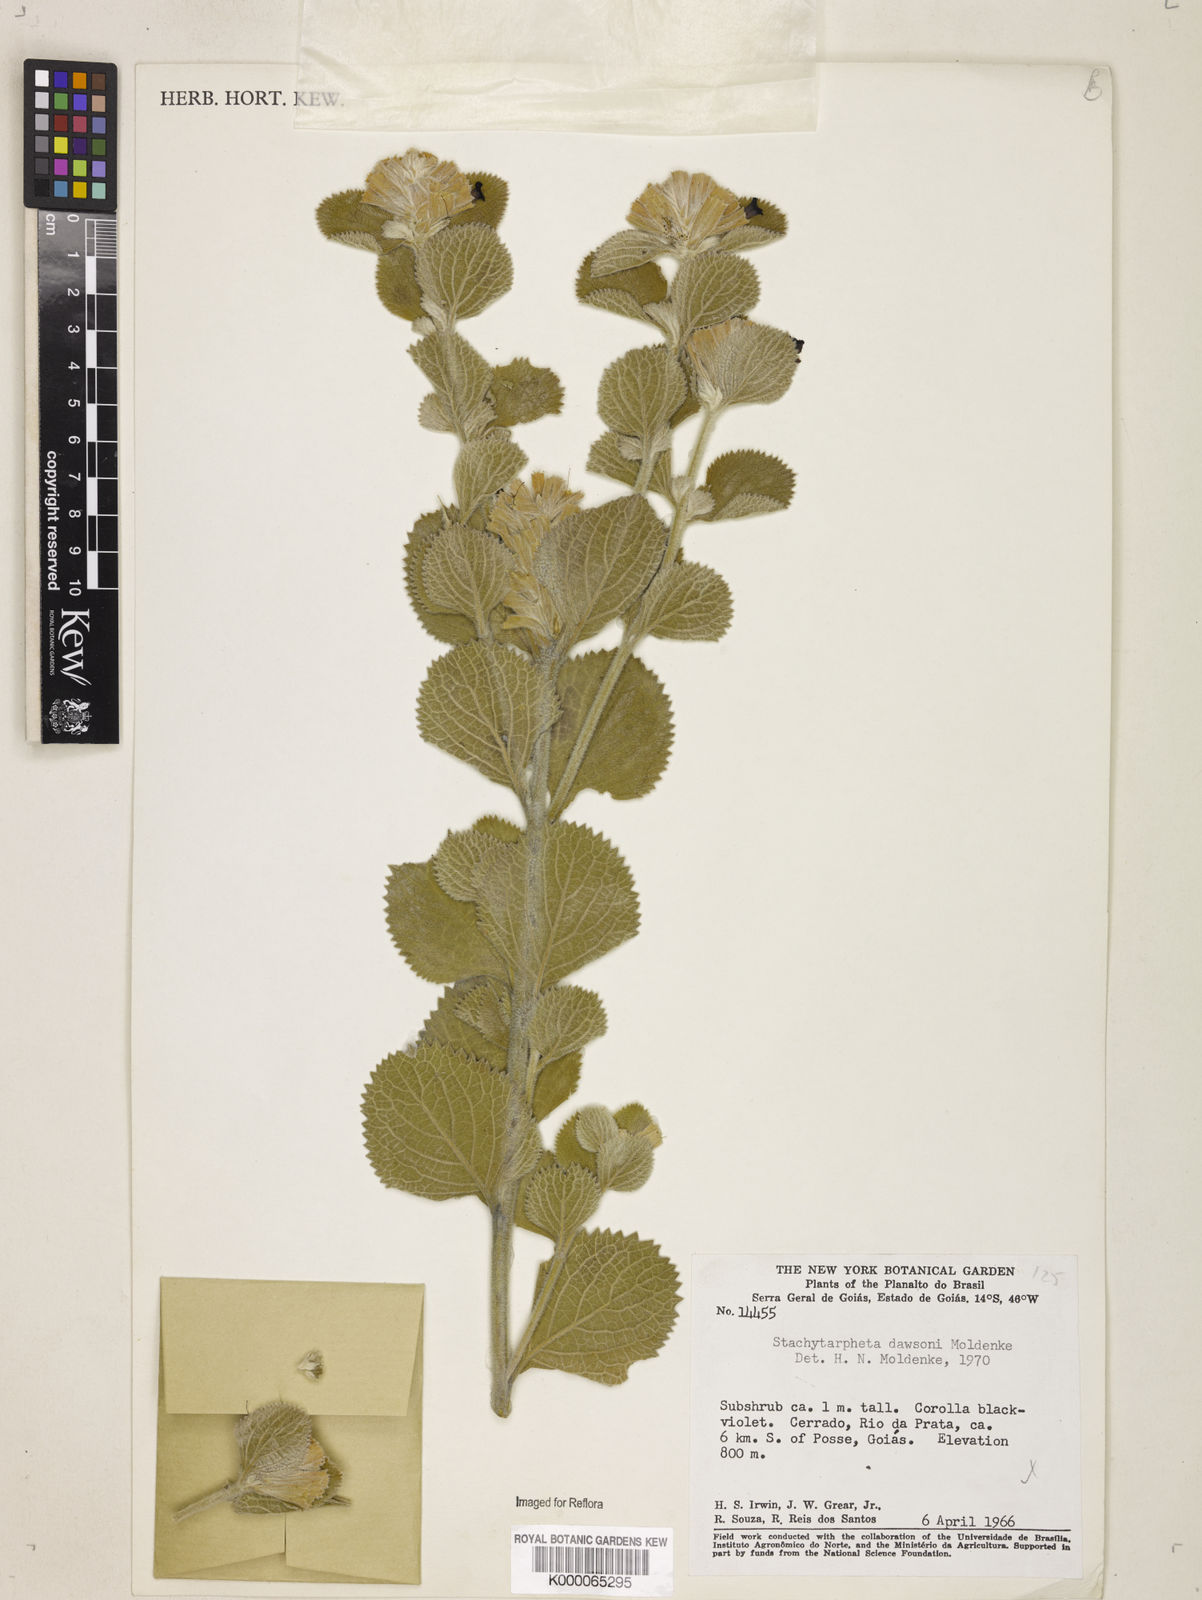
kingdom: Plantae
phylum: Tracheophyta
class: Magnoliopsida
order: Lamiales
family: Verbenaceae
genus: Stachytarpheta
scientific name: Stachytarpheta mollis
